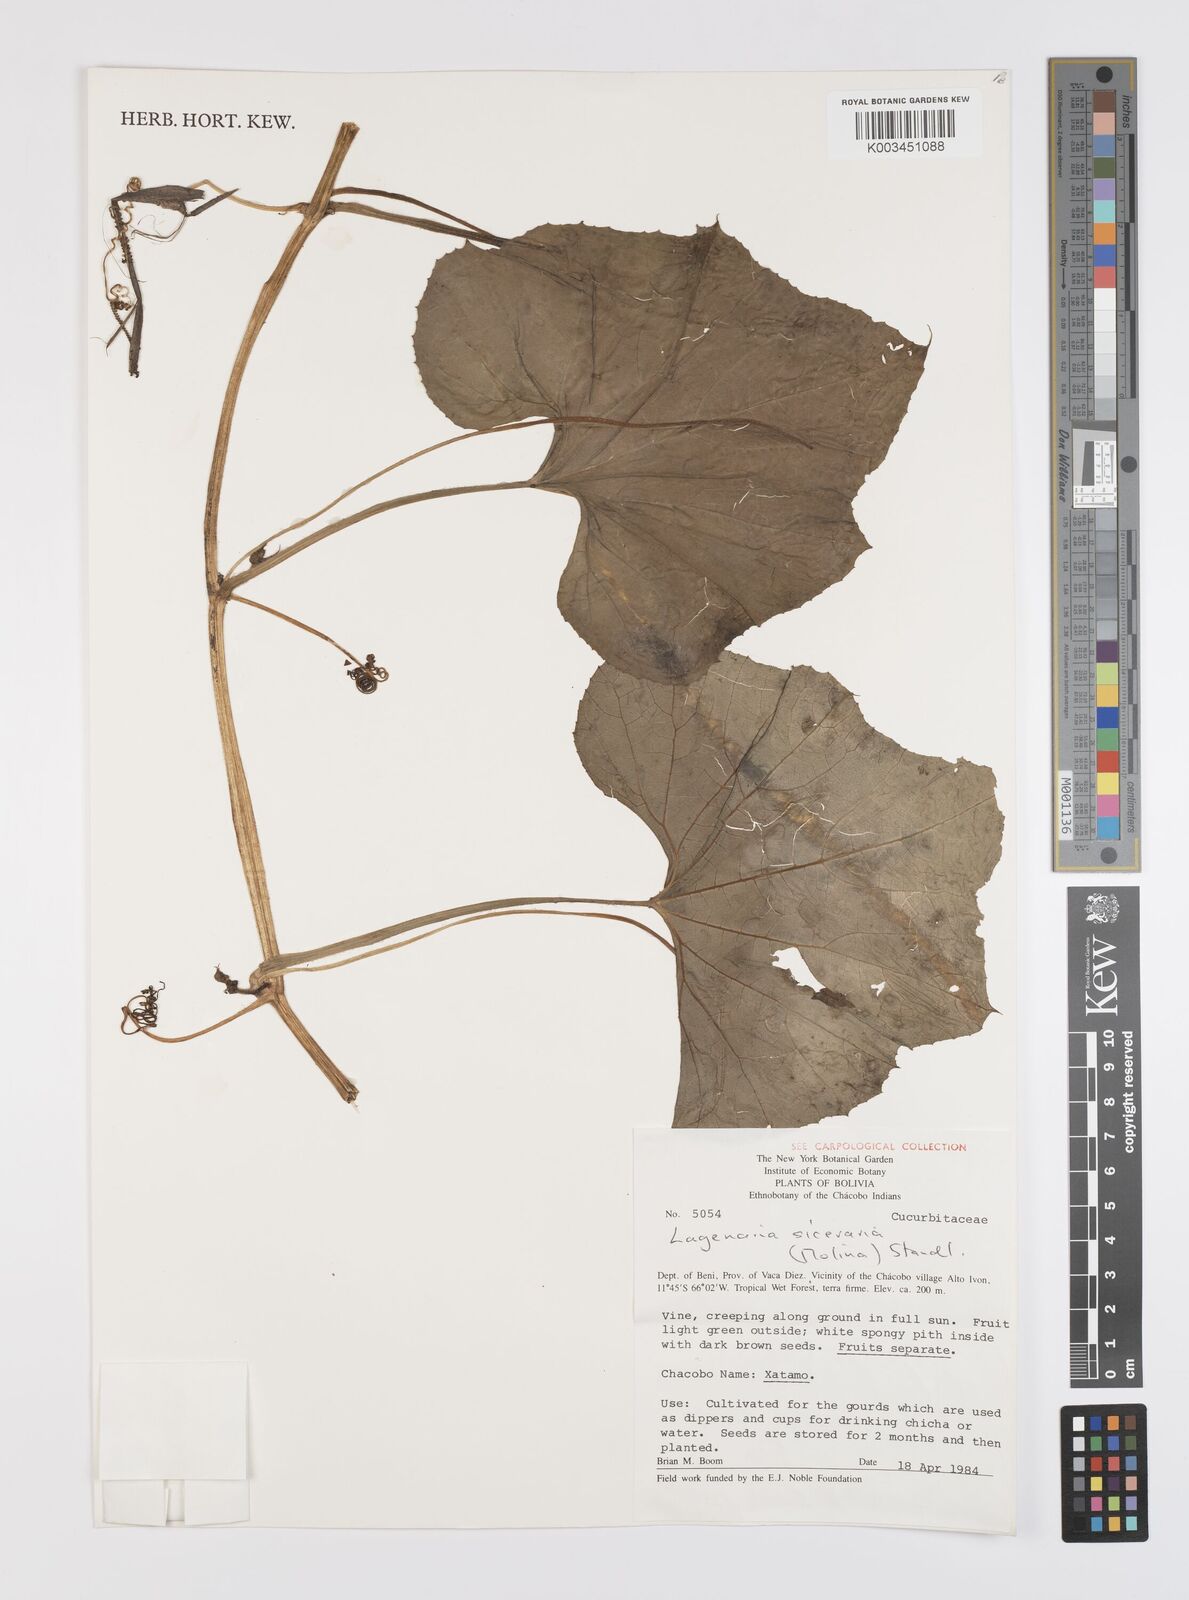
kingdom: Plantae
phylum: Tracheophyta
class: Magnoliopsida
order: Cucurbitales
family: Cucurbitaceae
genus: Lagenaria
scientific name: Lagenaria siceraria
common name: Bottle gourd
